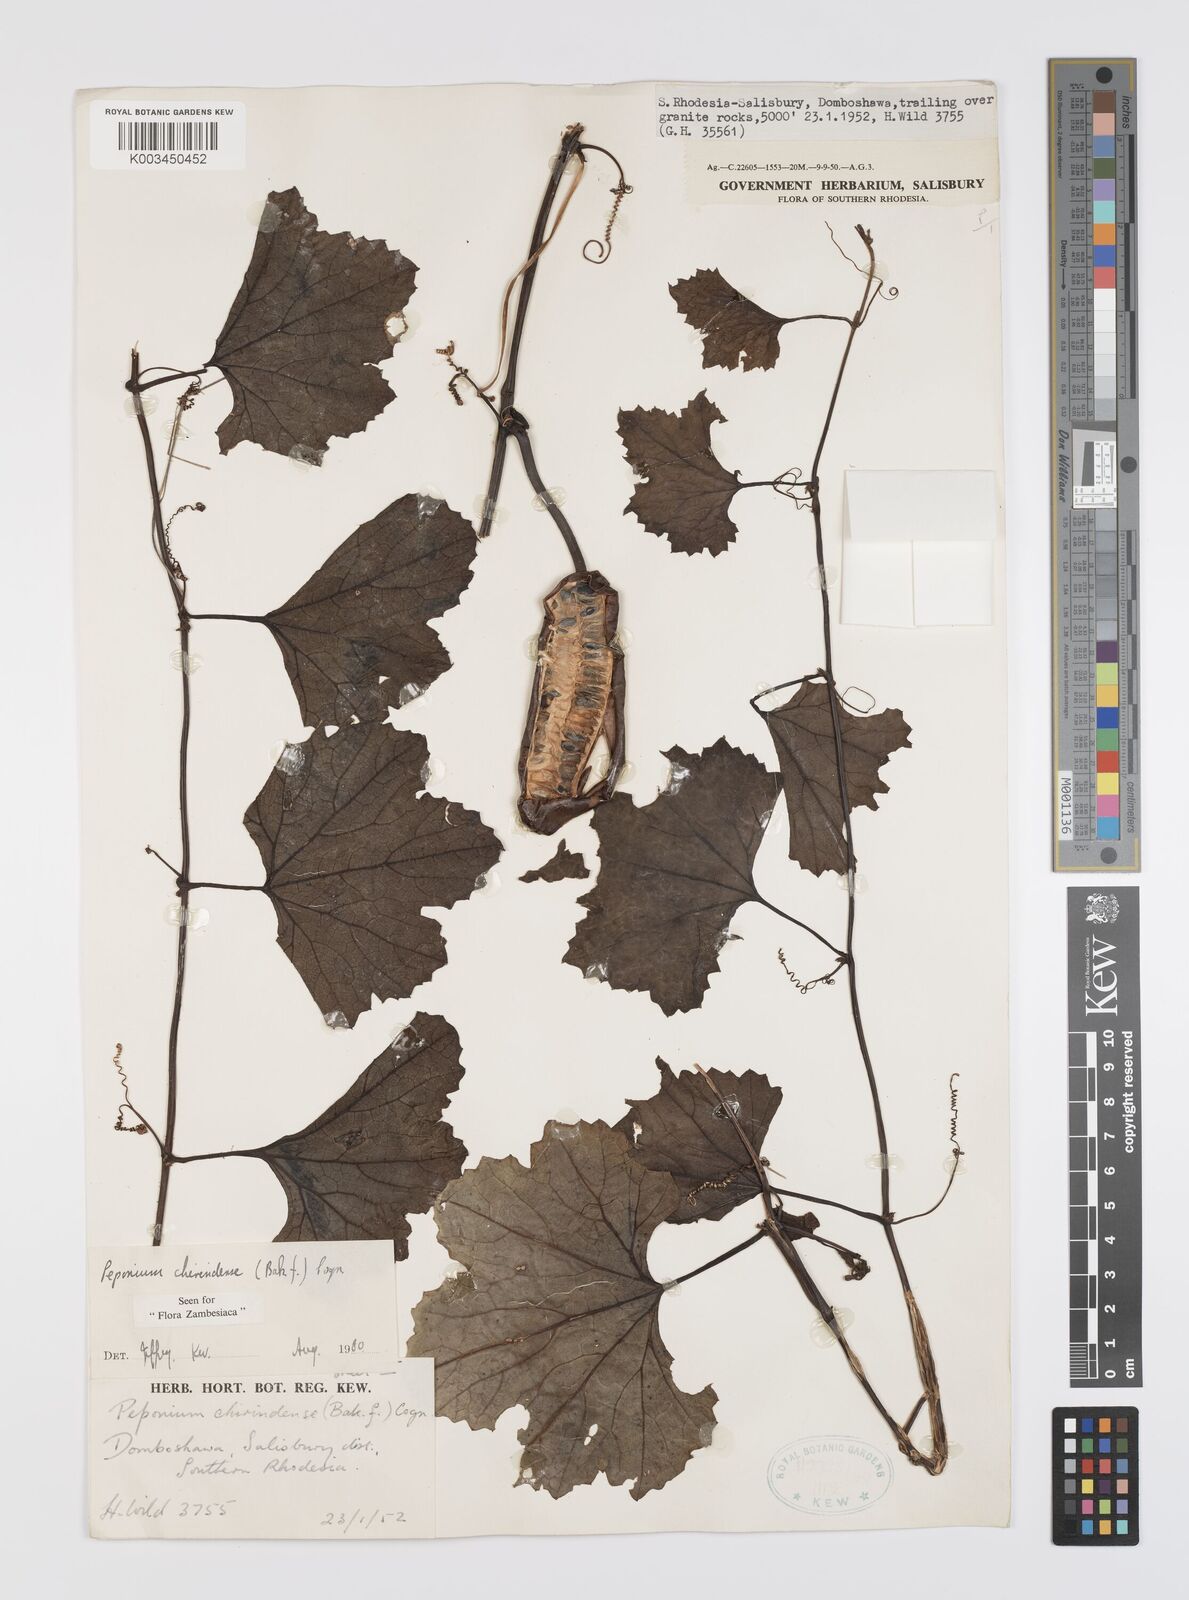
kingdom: Plantae
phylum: Tracheophyta
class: Magnoliopsida
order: Cucurbitales
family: Cucurbitaceae
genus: Peponium
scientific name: Peponium chirindense
